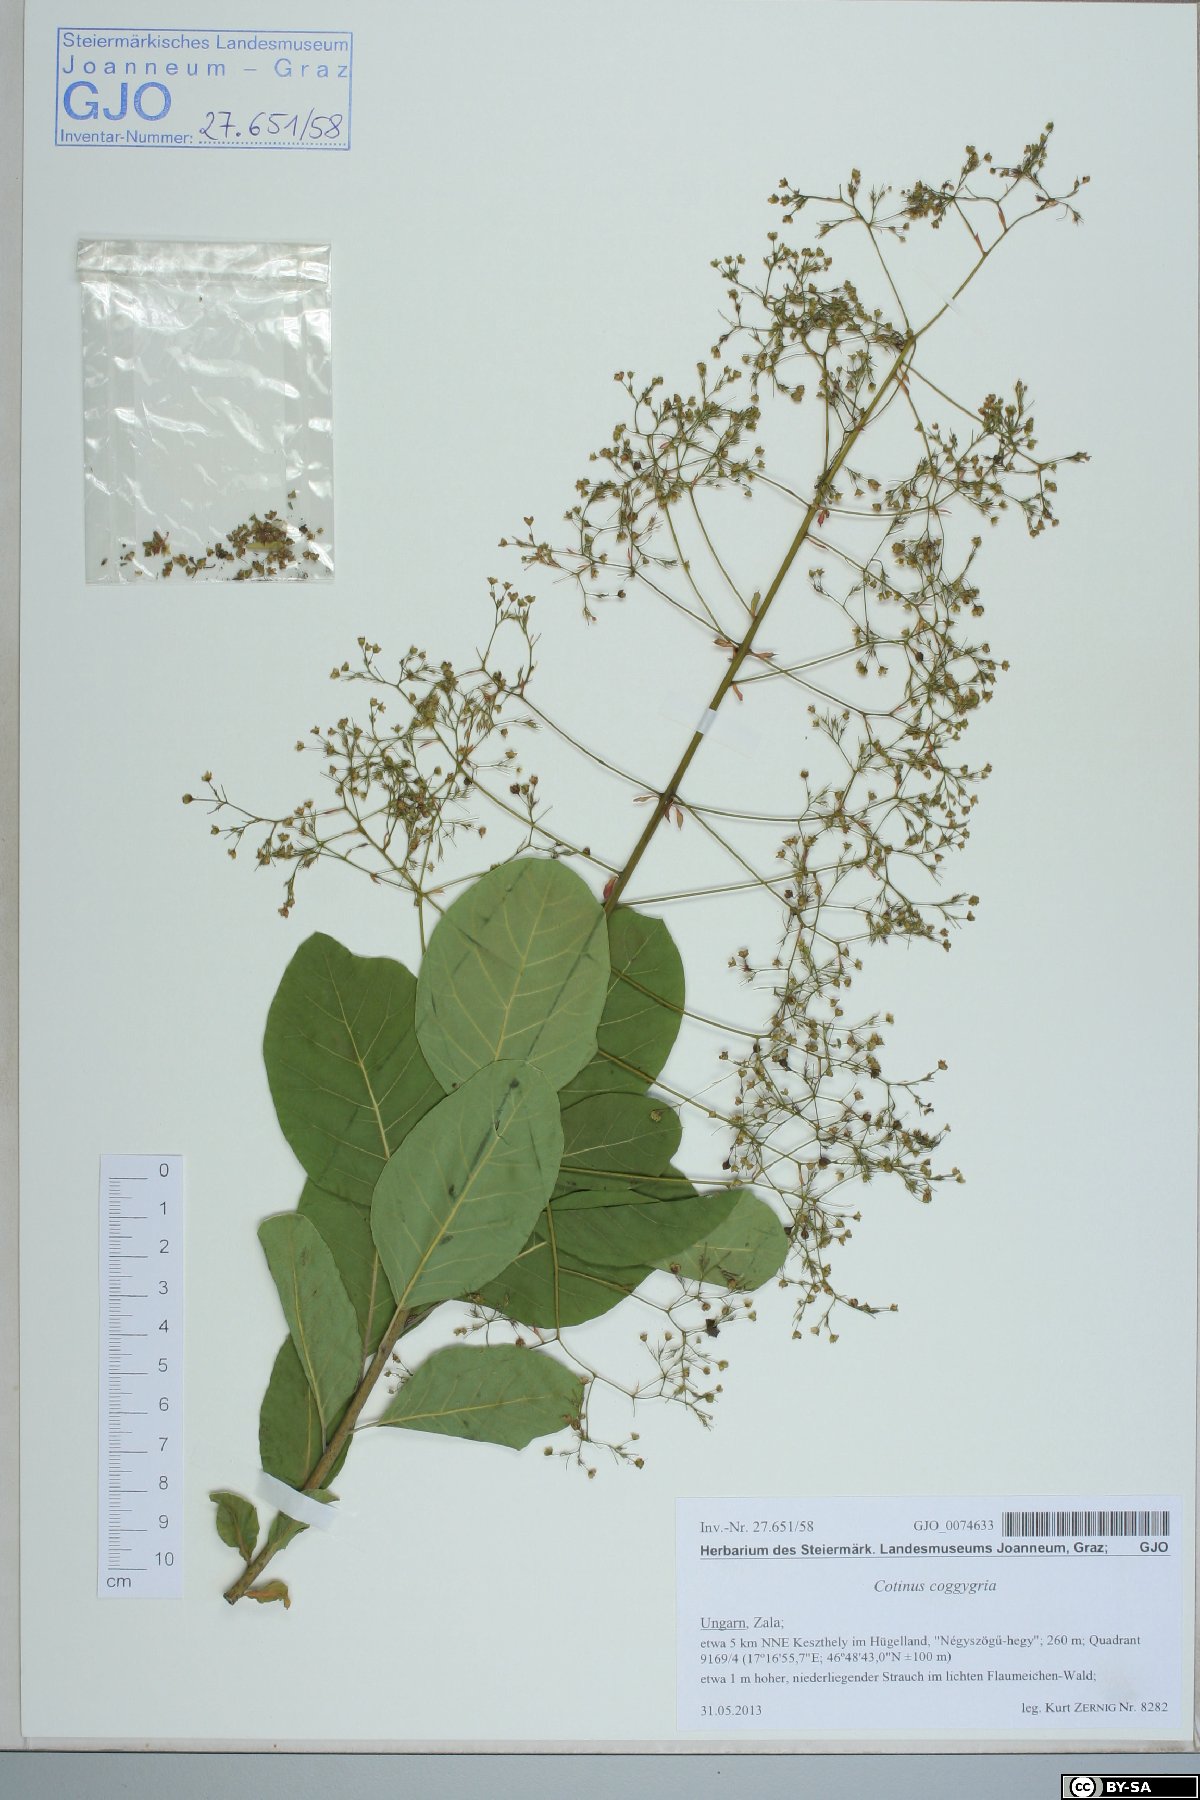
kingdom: Plantae
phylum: Tracheophyta
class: Magnoliopsida
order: Sapindales
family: Anacardiaceae
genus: Cotinus
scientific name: Cotinus coggygria
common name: Smoke-tree
